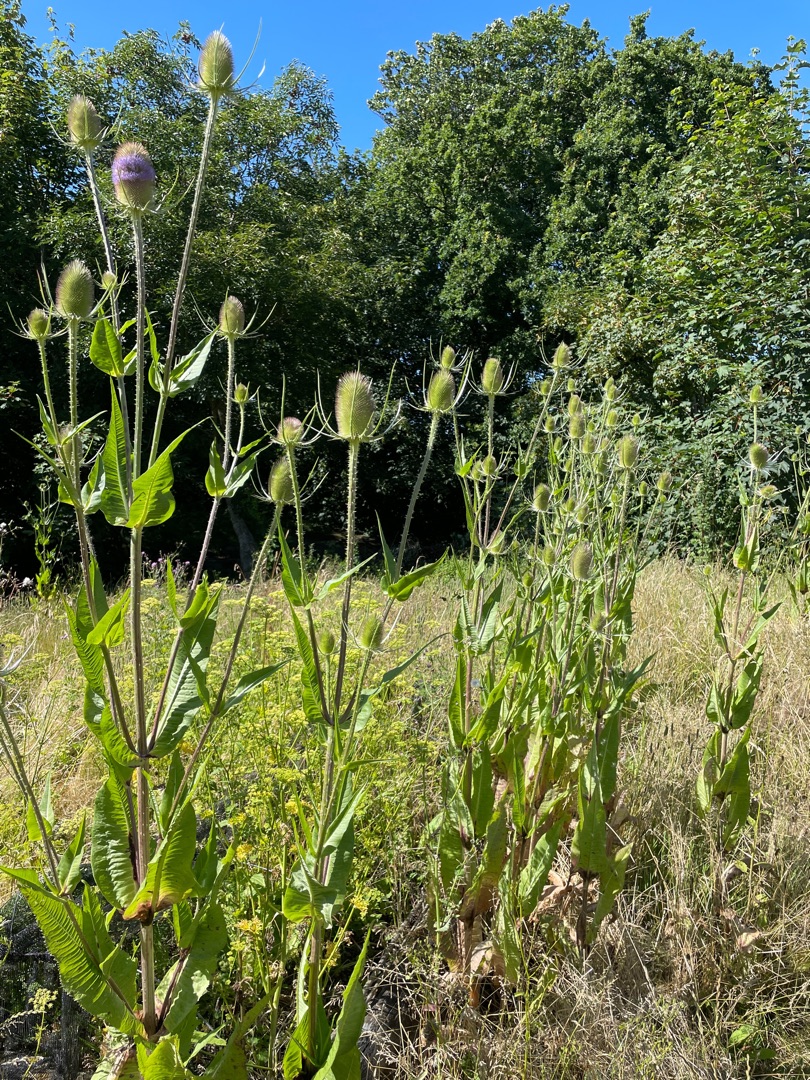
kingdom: Plantae
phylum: Tracheophyta
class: Magnoliopsida
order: Dipsacales
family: Caprifoliaceae
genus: Dipsacus
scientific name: Dipsacus fullonum
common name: Gærde-kartebolle
